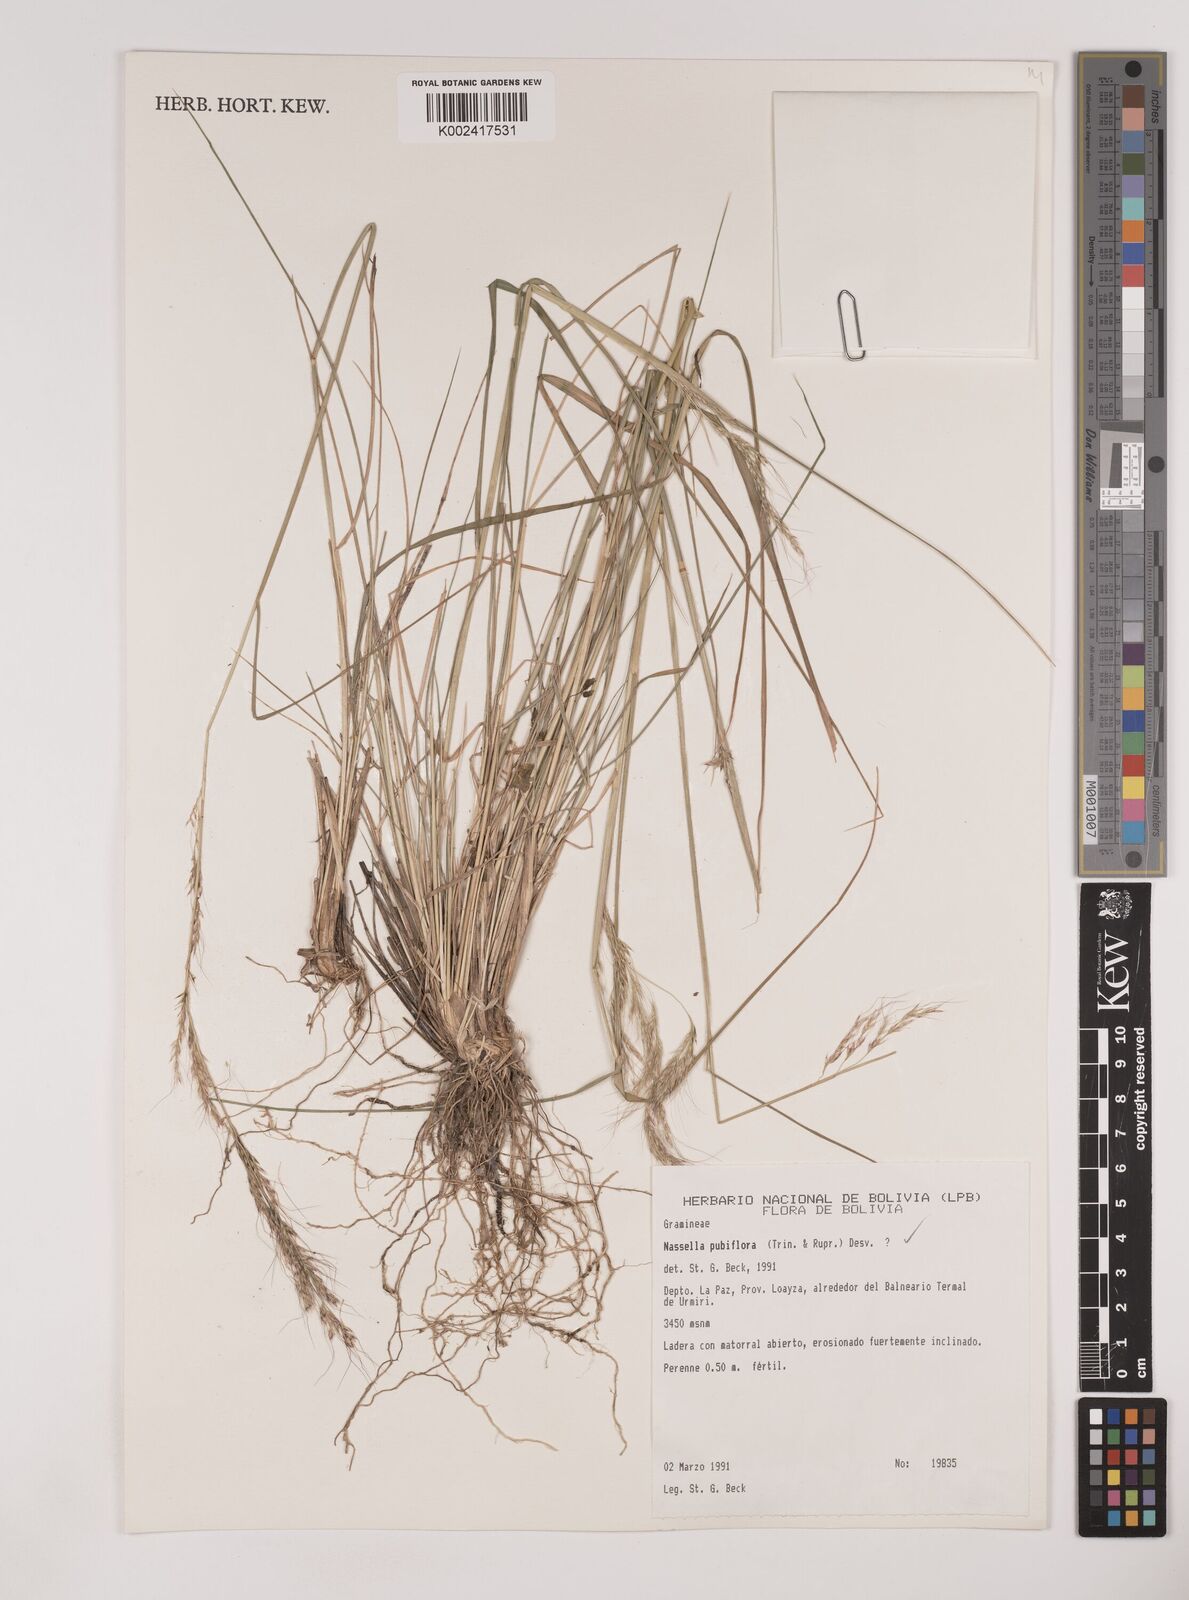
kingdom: Plantae
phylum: Tracheophyta
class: Liliopsida
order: Poales
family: Poaceae
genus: Nassella
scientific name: Nassella pubiflora
